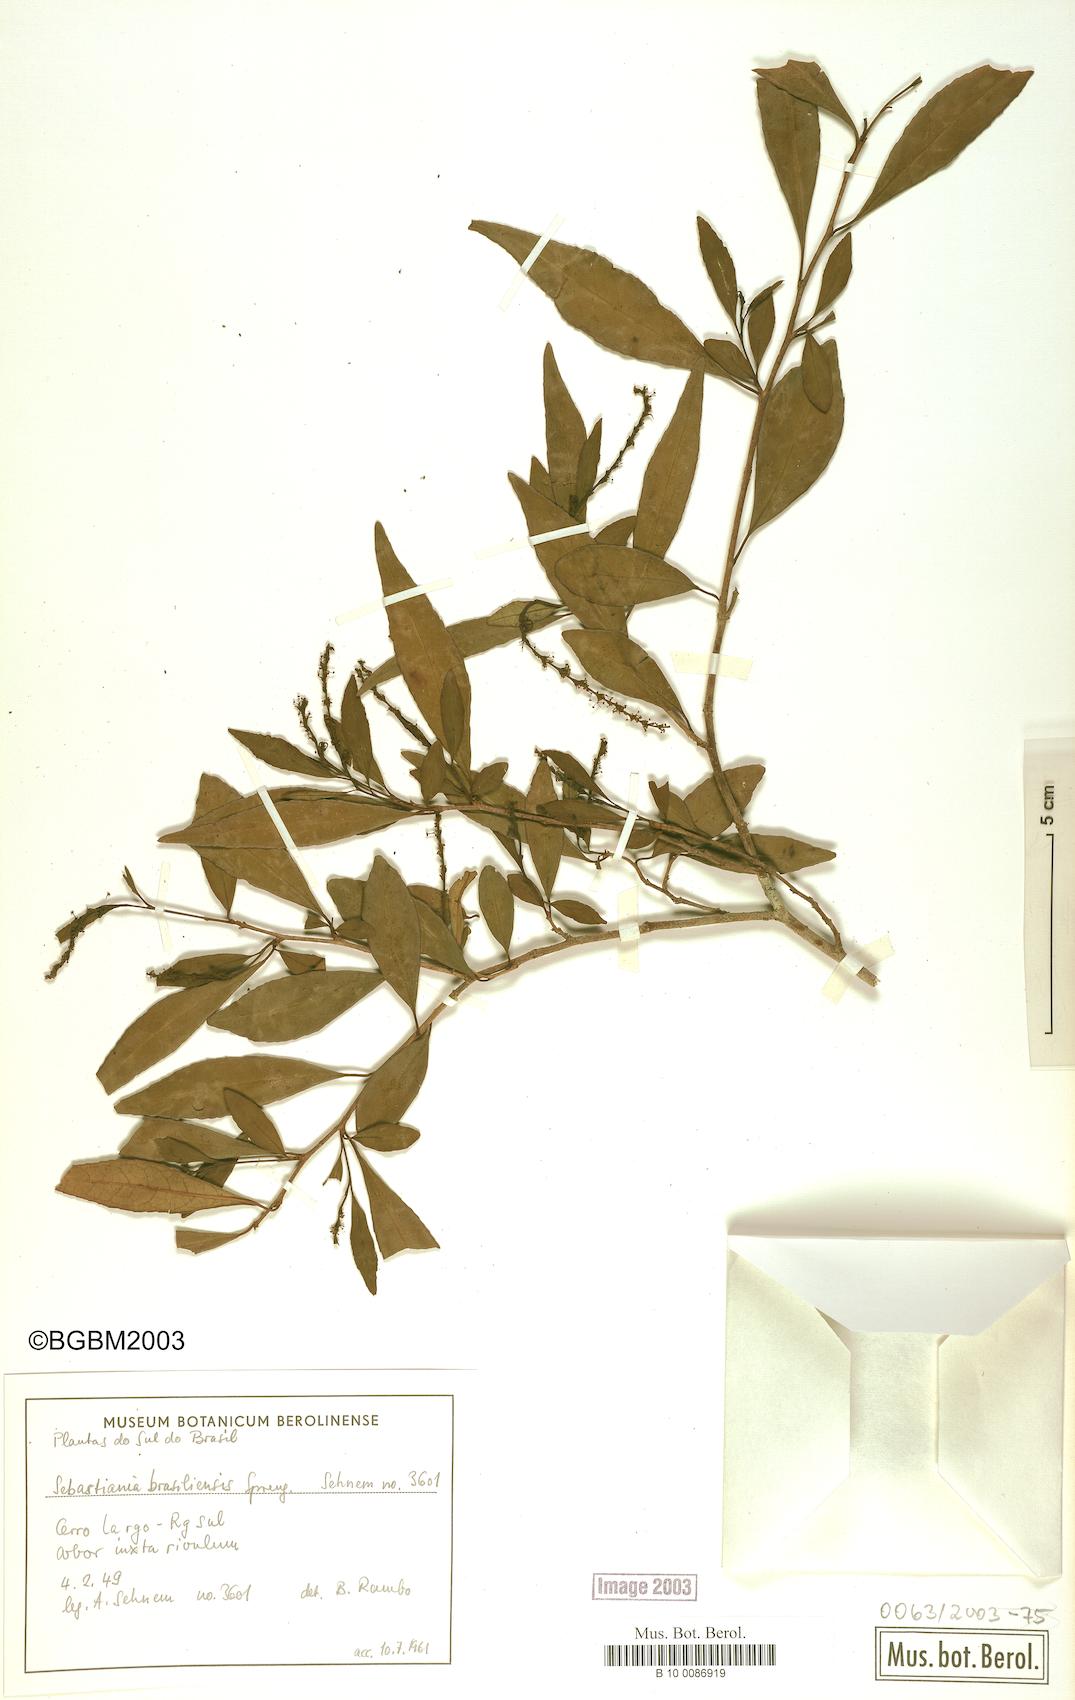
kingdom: Plantae
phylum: Tracheophyta
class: Magnoliopsida
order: Malpighiales
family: Euphorbiaceae
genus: Sebastiania
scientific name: Sebastiania brasiliensis
